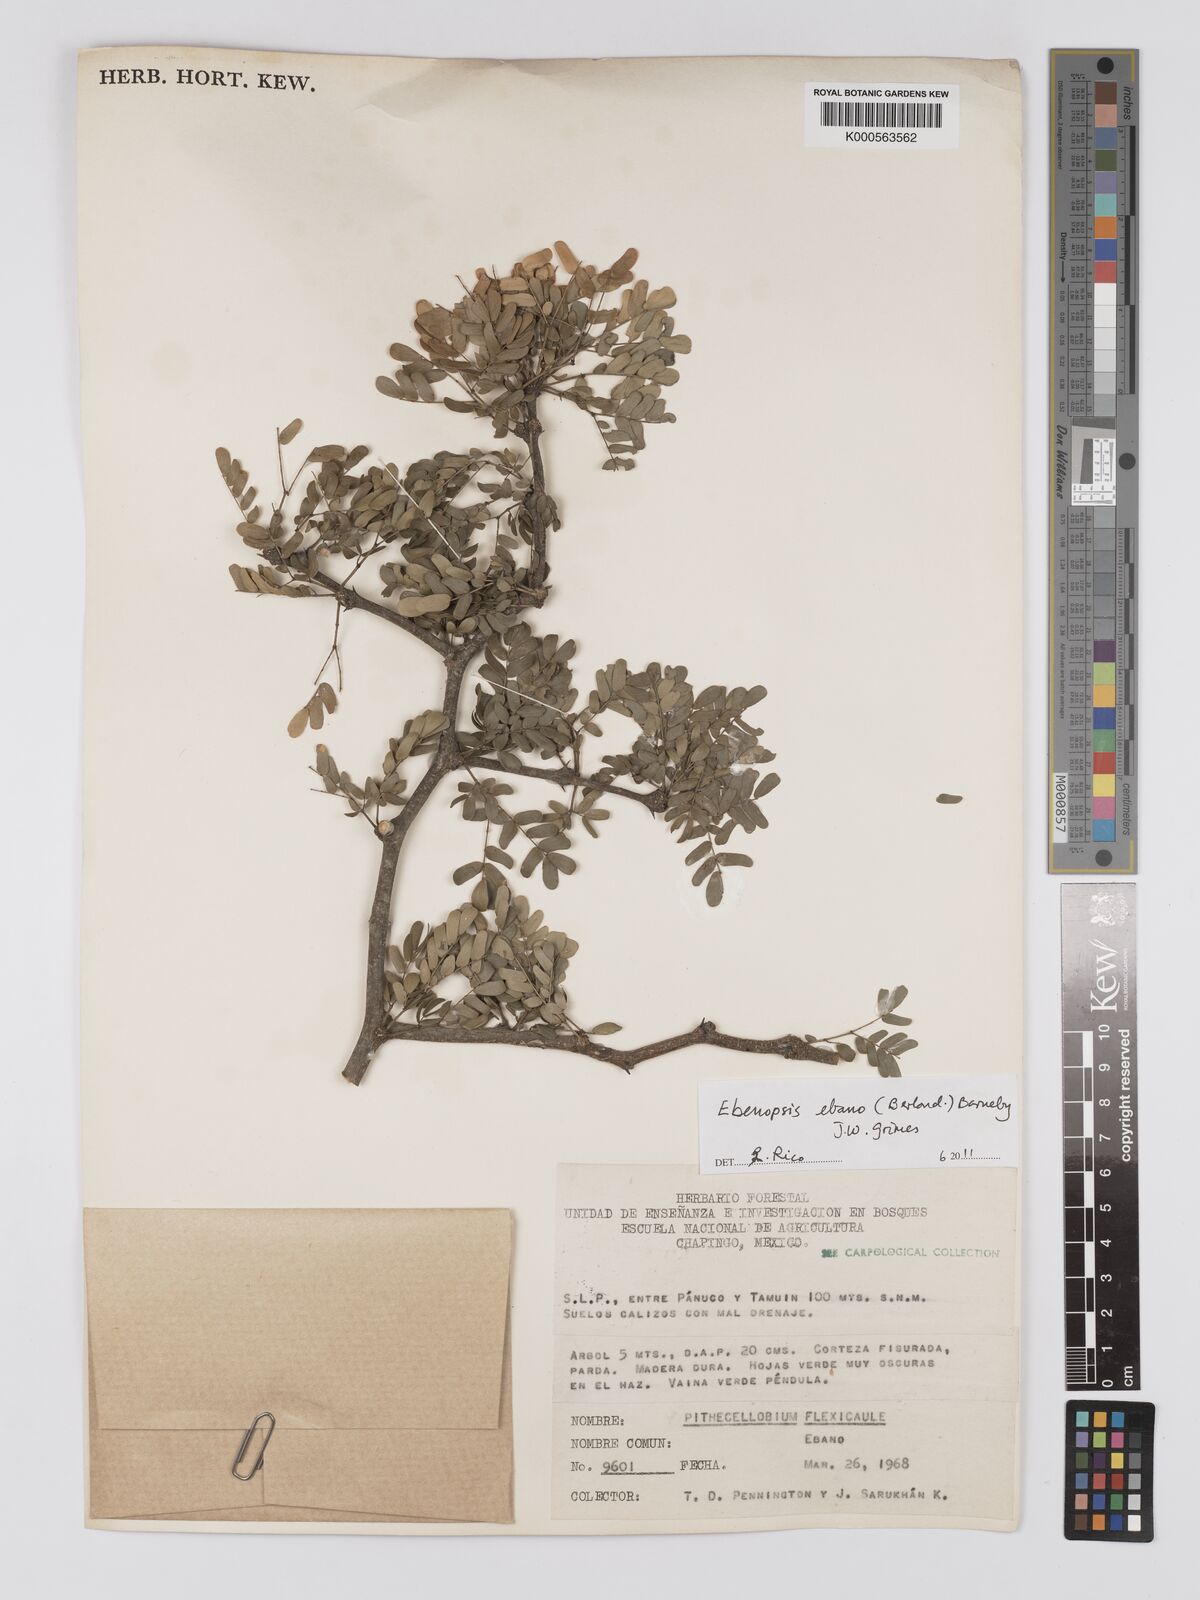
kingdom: Plantae
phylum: Tracheophyta
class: Magnoliopsida
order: Fabales
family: Fabaceae
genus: Ebenopsis
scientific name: Ebenopsis ebano
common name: Ebony blackbead
